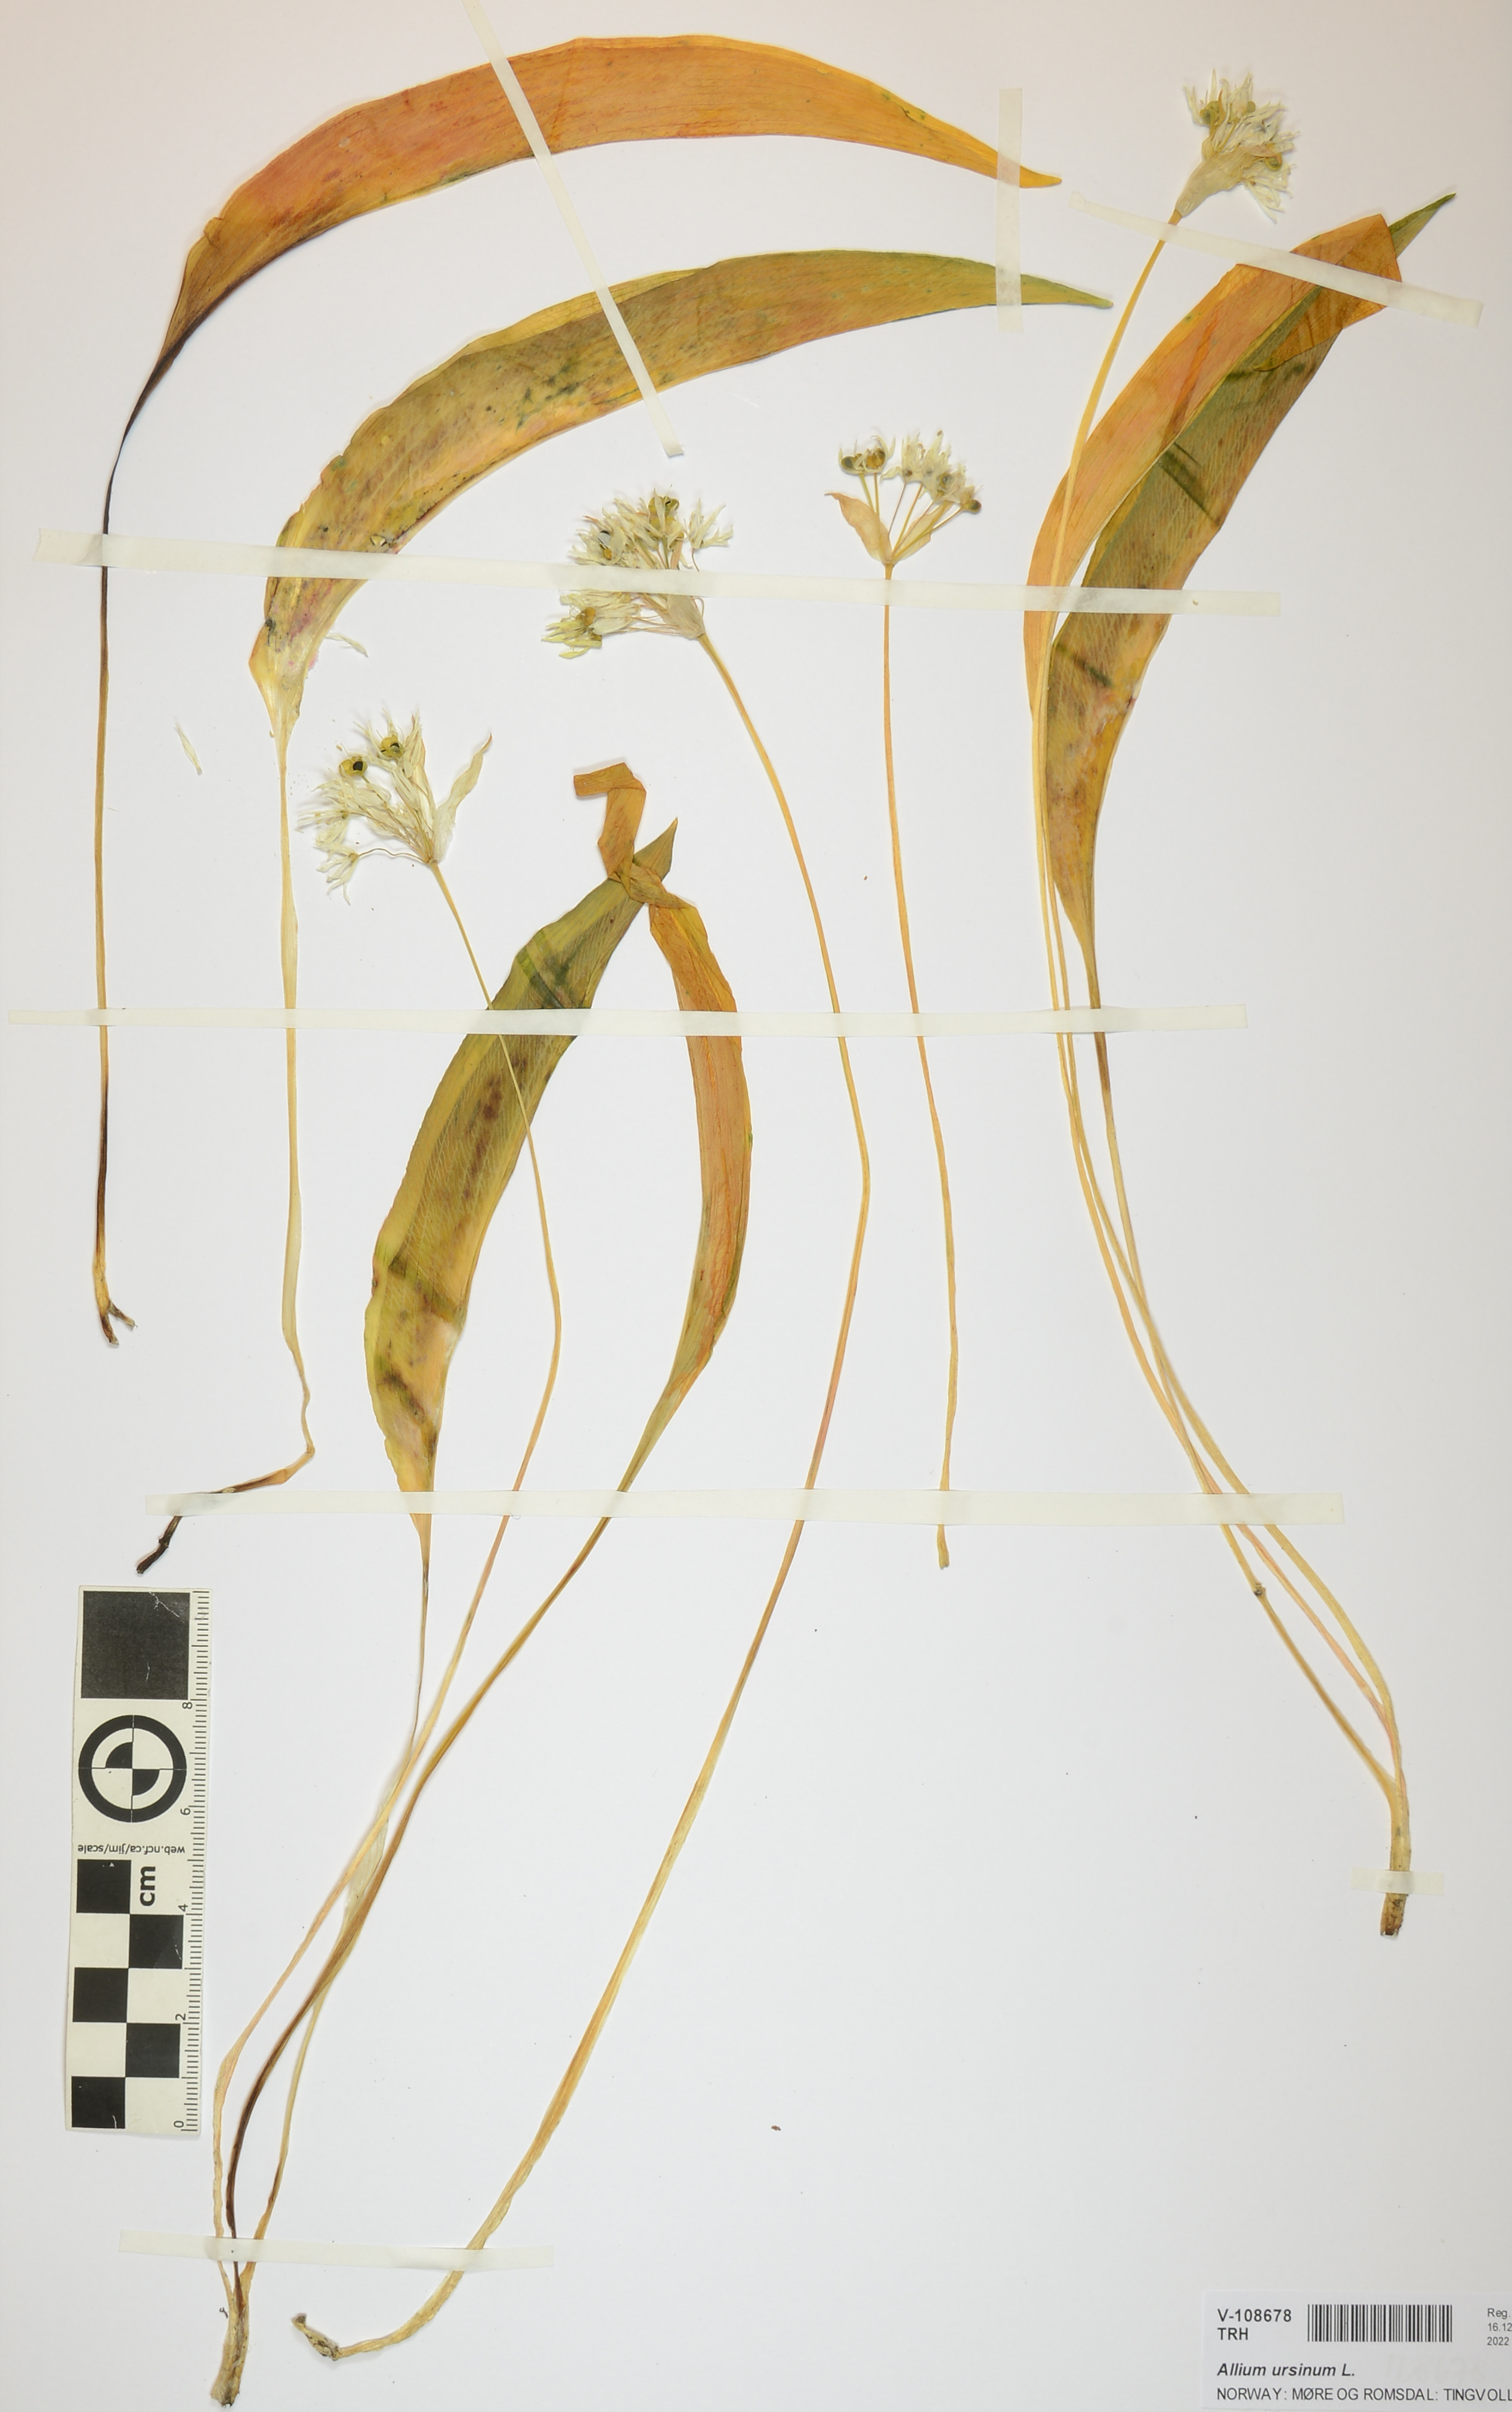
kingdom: Plantae
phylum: Tracheophyta
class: Liliopsida
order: Asparagales
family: Amaryllidaceae
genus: Allium
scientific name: Allium ursinum
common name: Ramsons
